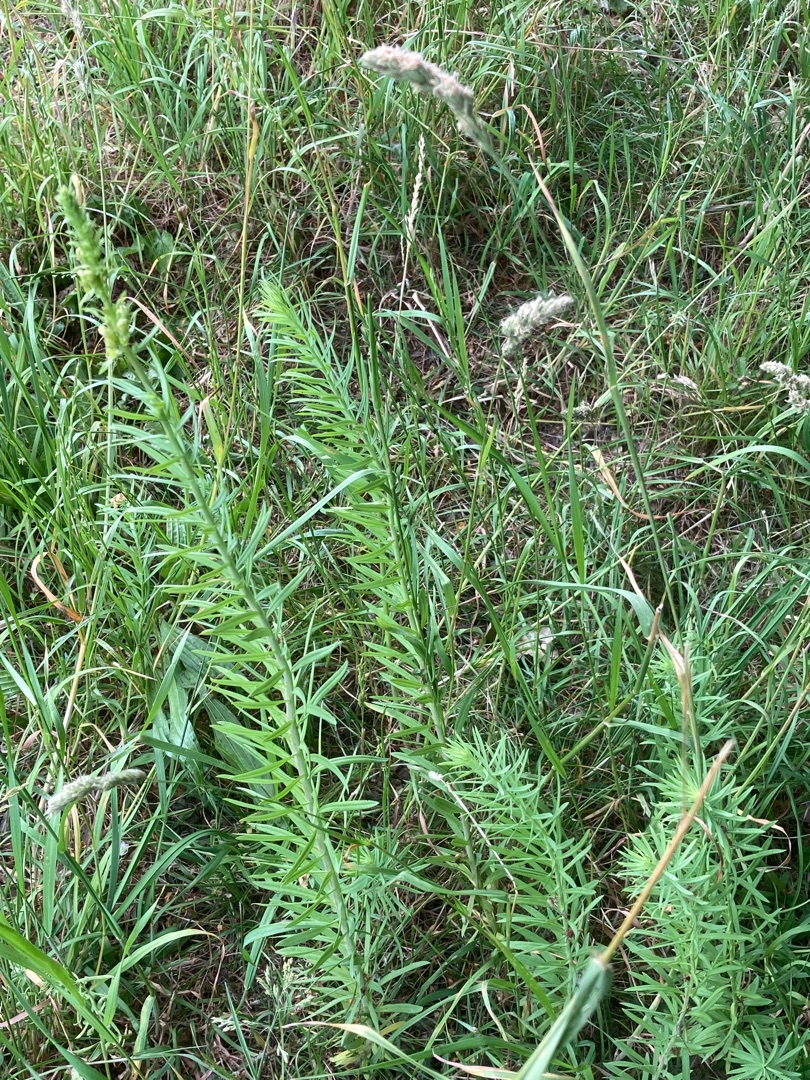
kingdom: Plantae
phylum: Tracheophyta
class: Magnoliopsida
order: Lamiales
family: Plantaginaceae
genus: Linaria
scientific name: Linaria vulgaris
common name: Almindelig torskemund
